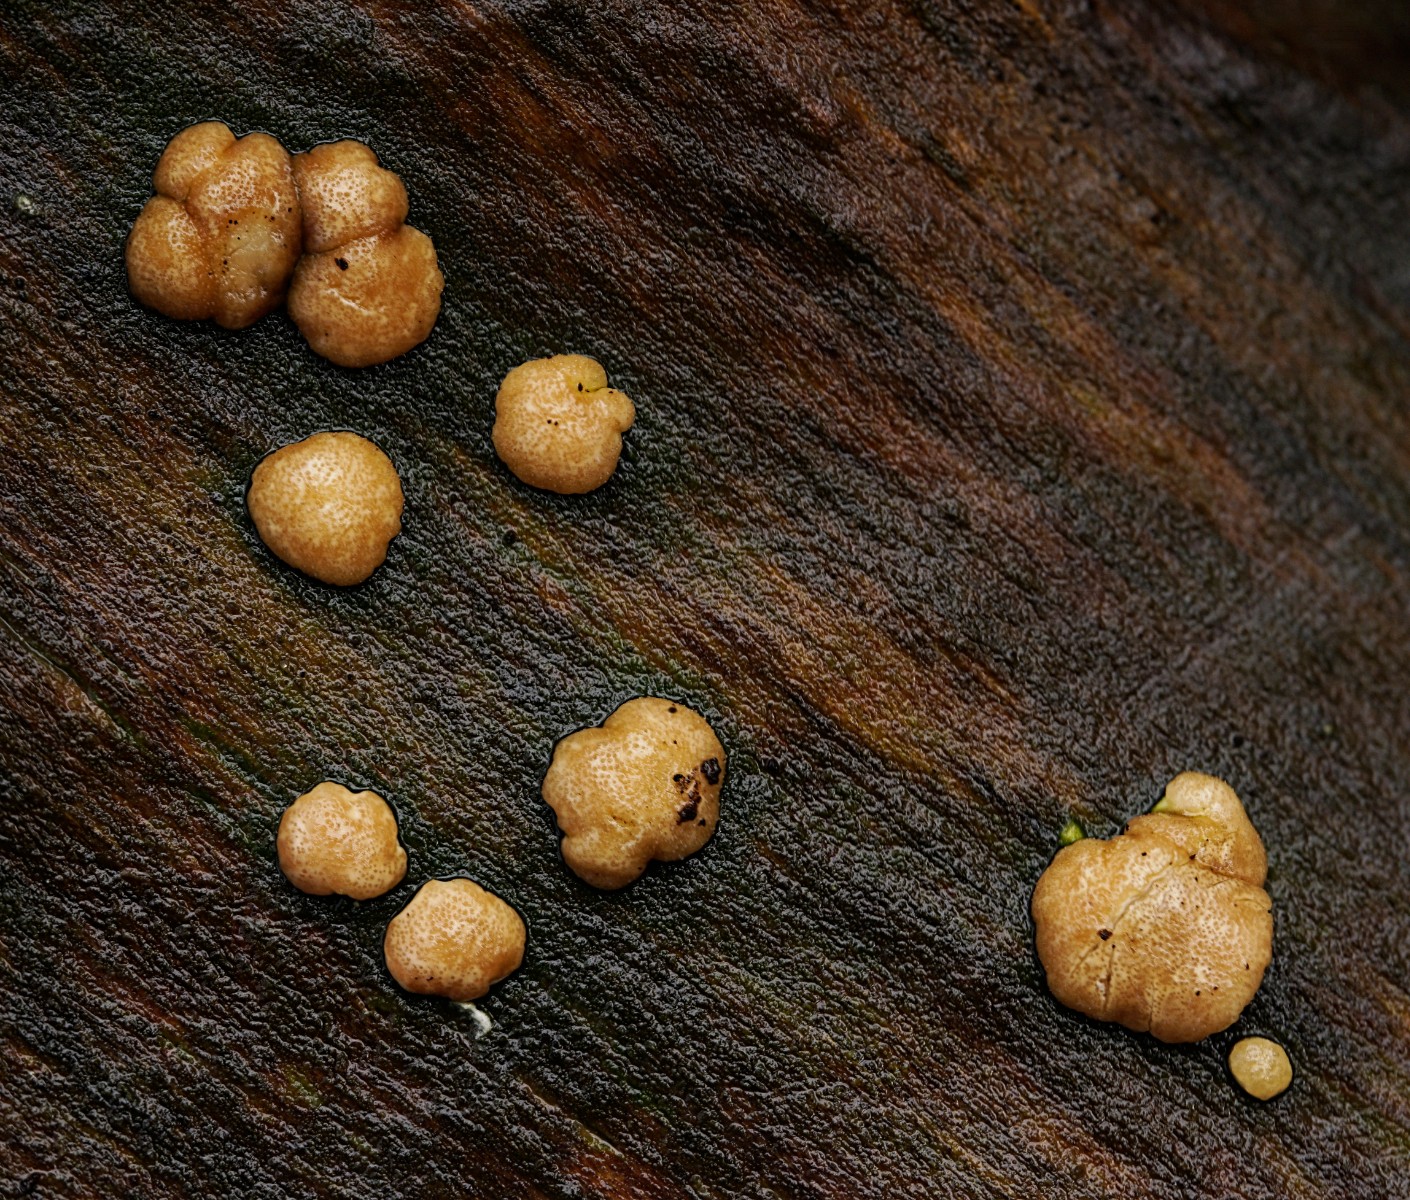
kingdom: Fungi
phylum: Ascomycota
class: Sordariomycetes
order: Hypocreales
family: Hypocreaceae
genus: Trichoderma
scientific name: Trichoderma europaeum
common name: rosabrun kødkerne
